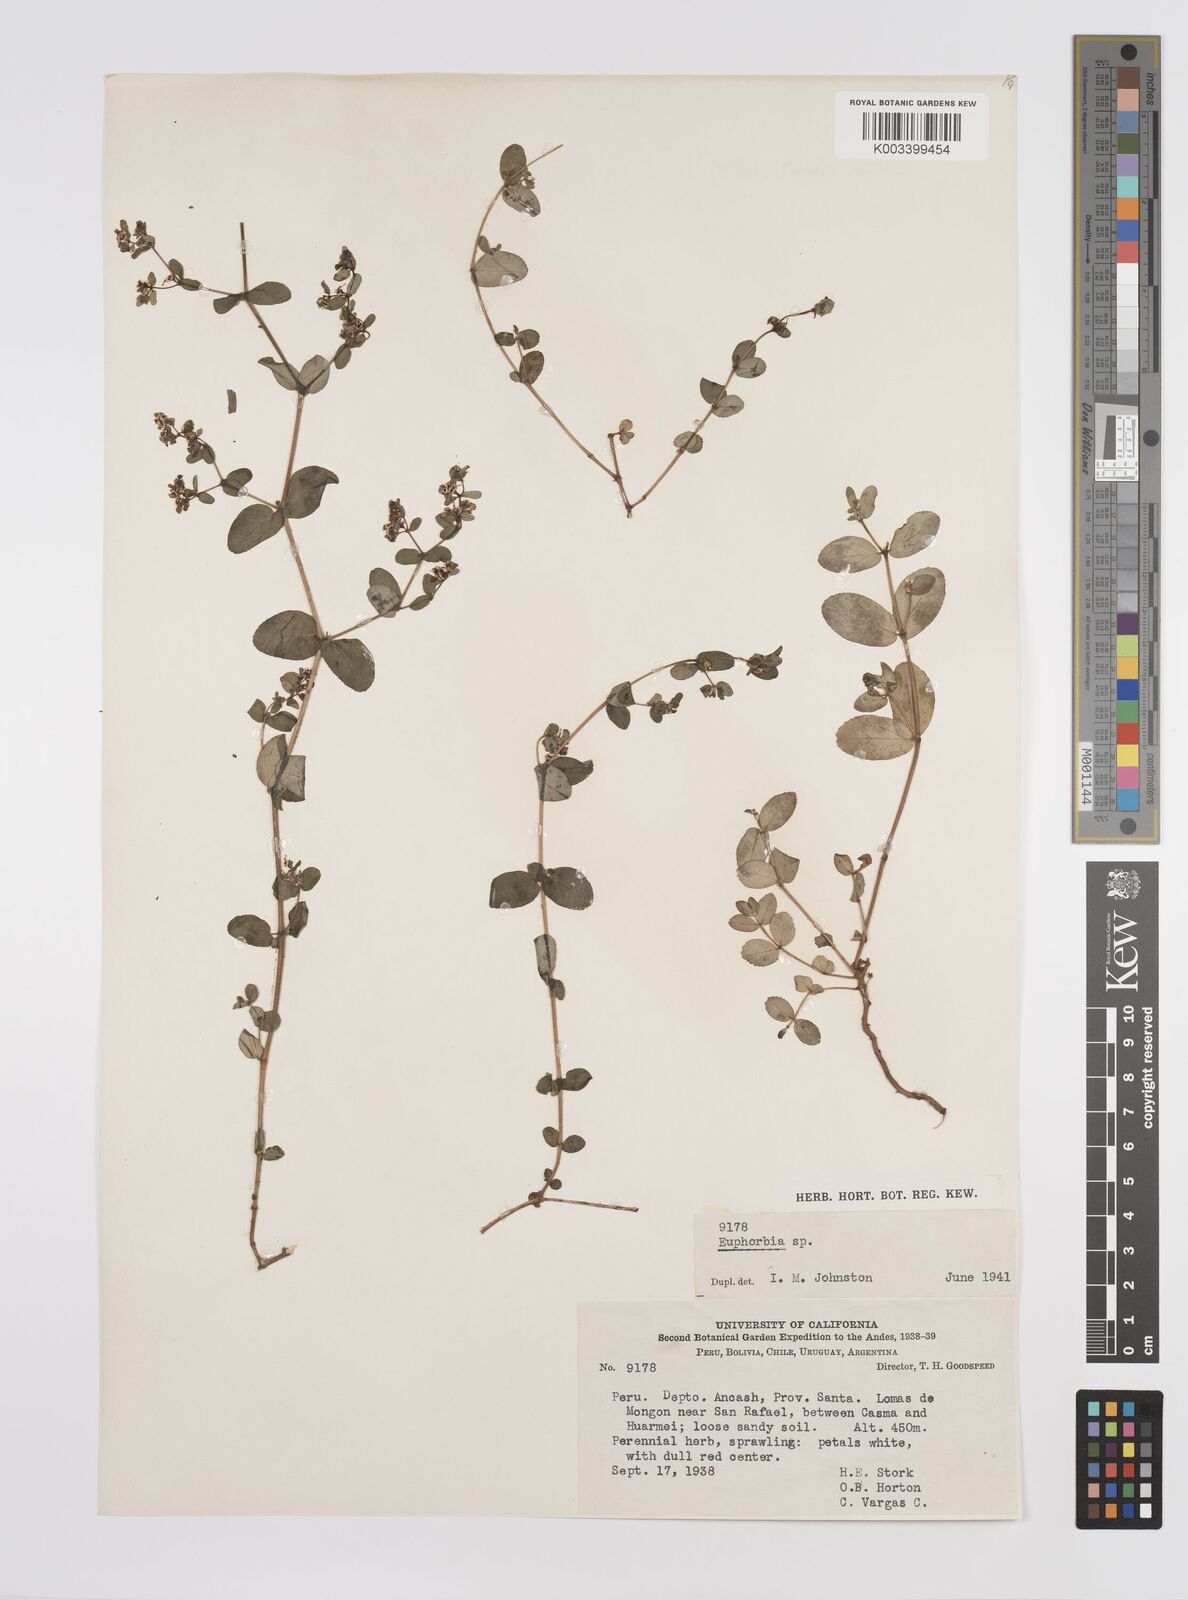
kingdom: Plantae
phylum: Tracheophyta
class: Magnoliopsida
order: Malpighiales
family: Euphorbiaceae
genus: Euphorbia
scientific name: Euphorbia
